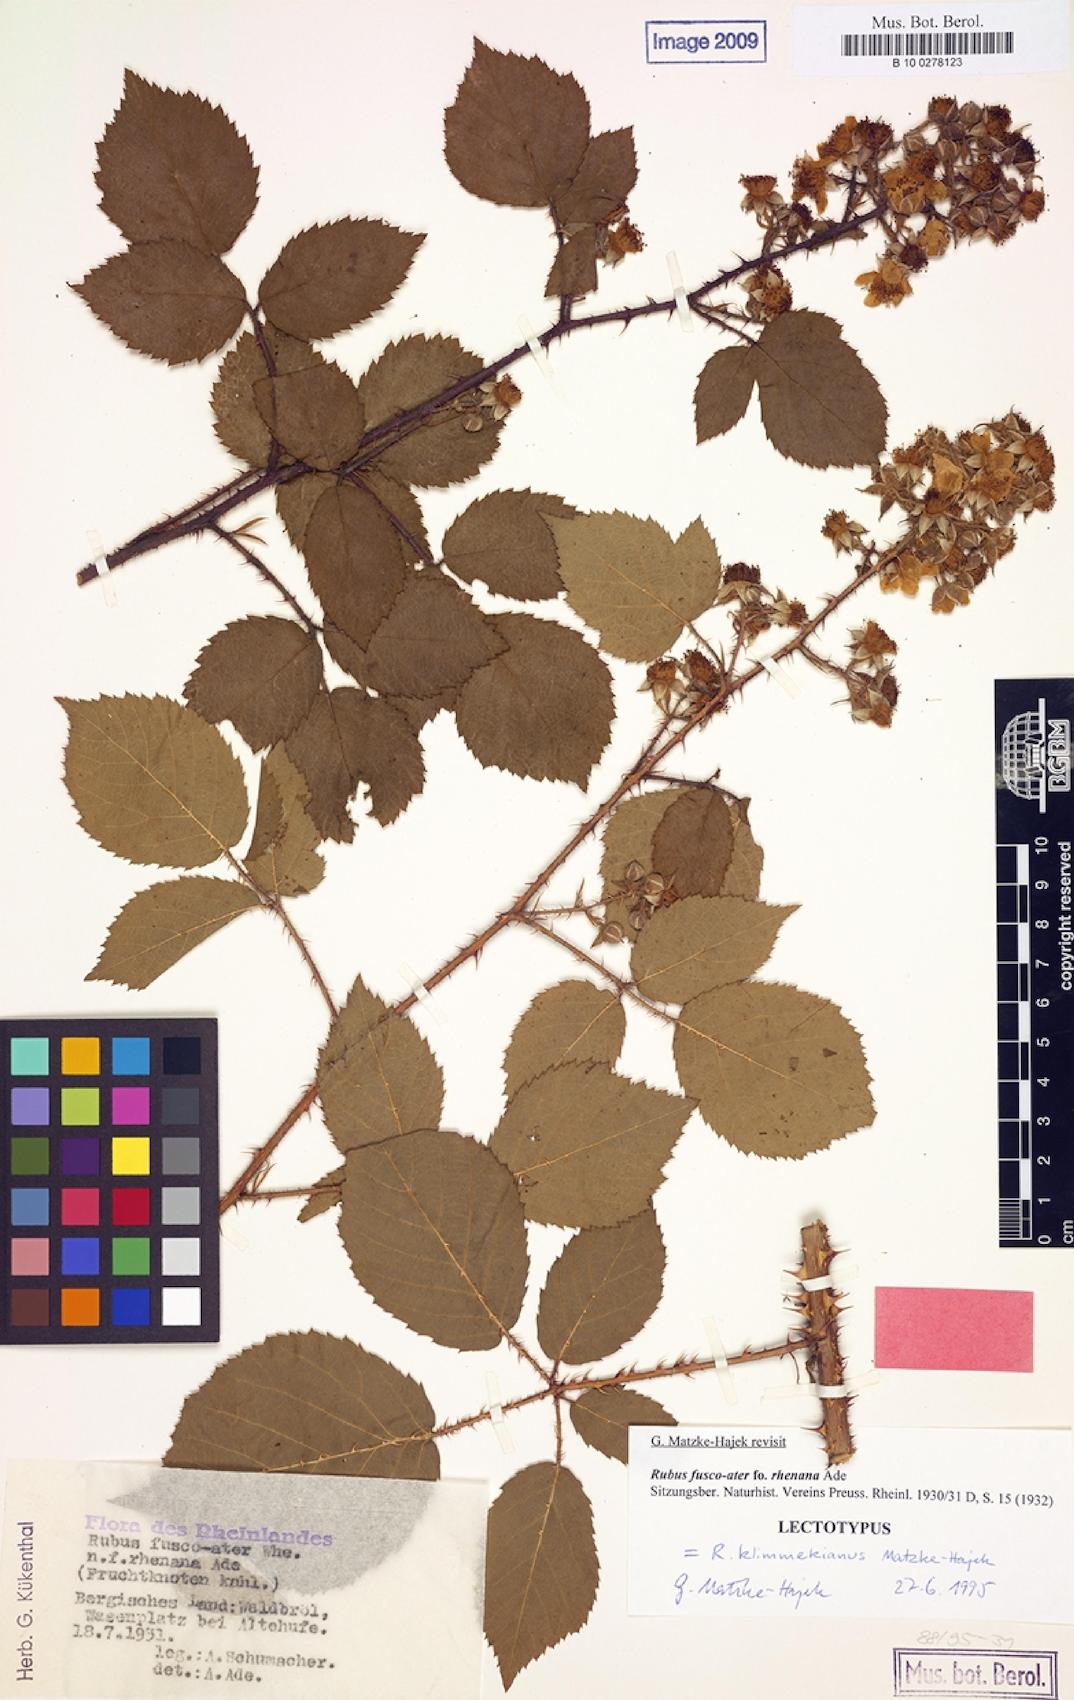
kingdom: Plantae
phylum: Tracheophyta
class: Magnoliopsida
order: Rosales
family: Rosaceae
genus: Rubus
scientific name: Rubus klimmekianus
